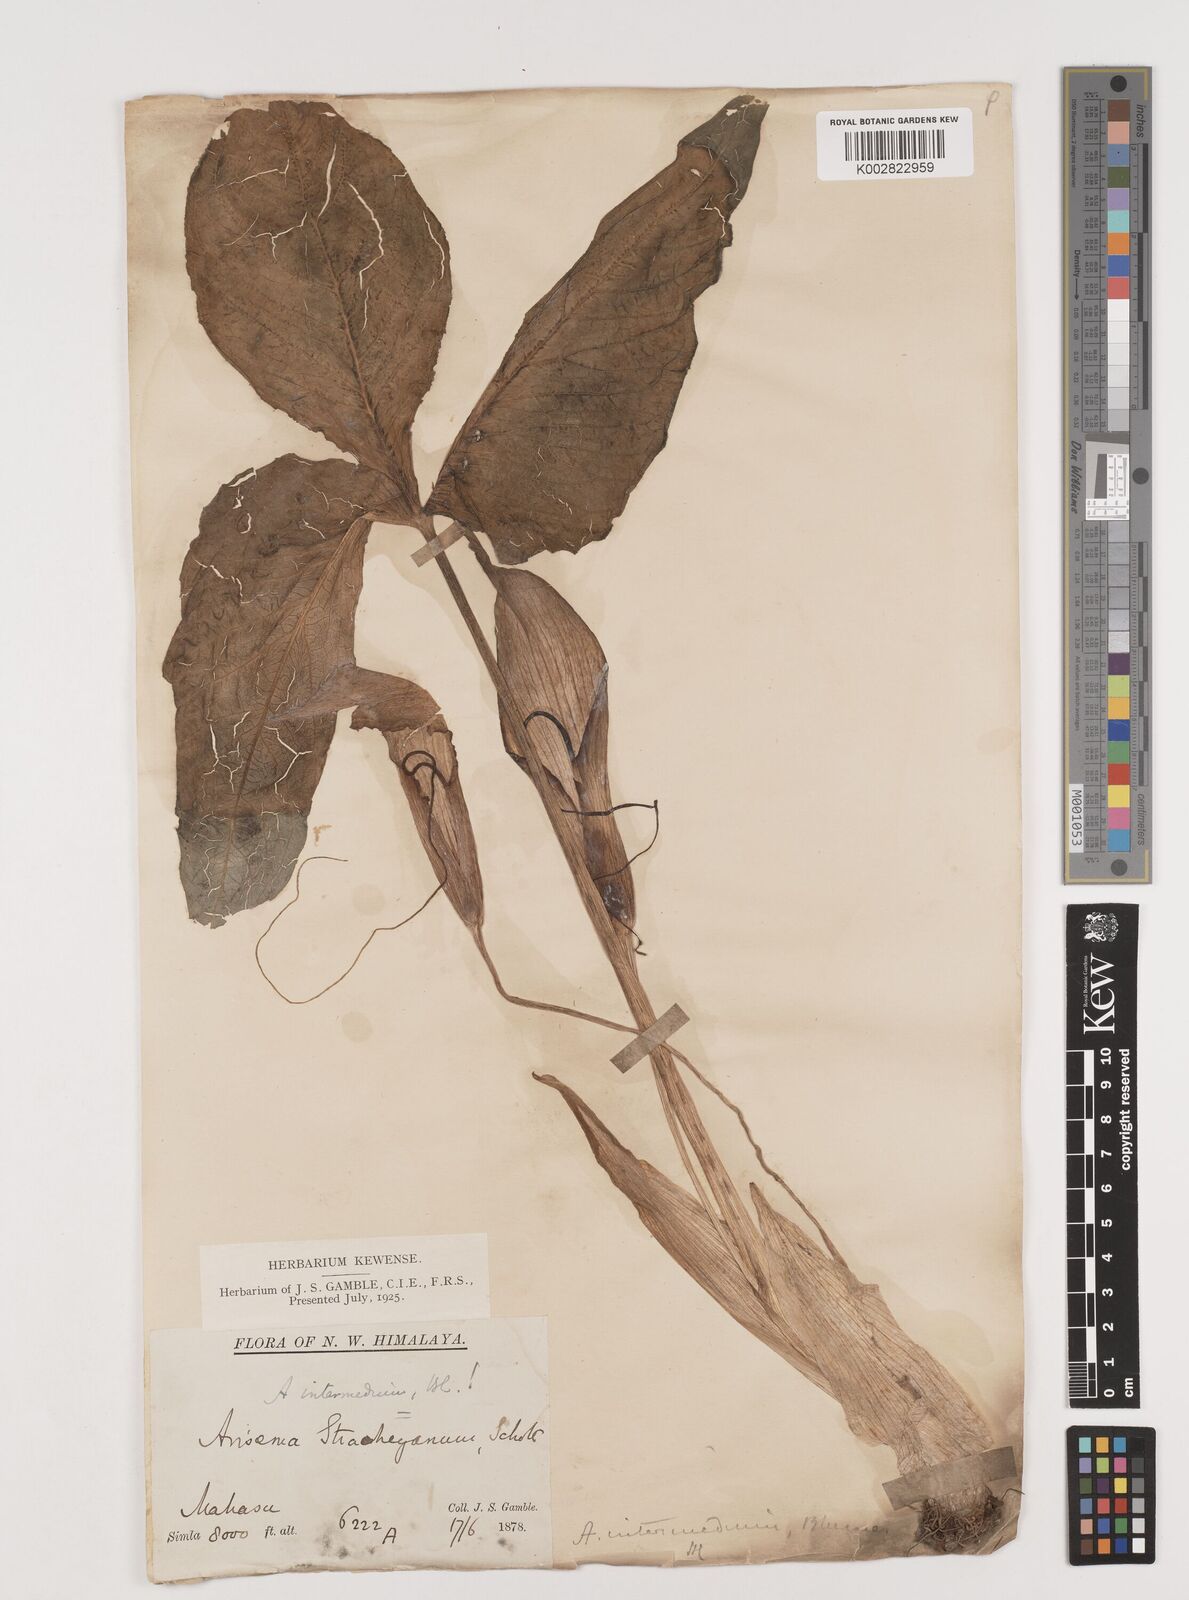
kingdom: Plantae
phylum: Tracheophyta
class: Liliopsida
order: Alismatales
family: Araceae
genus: Arisaema
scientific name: Arisaema intermedium
